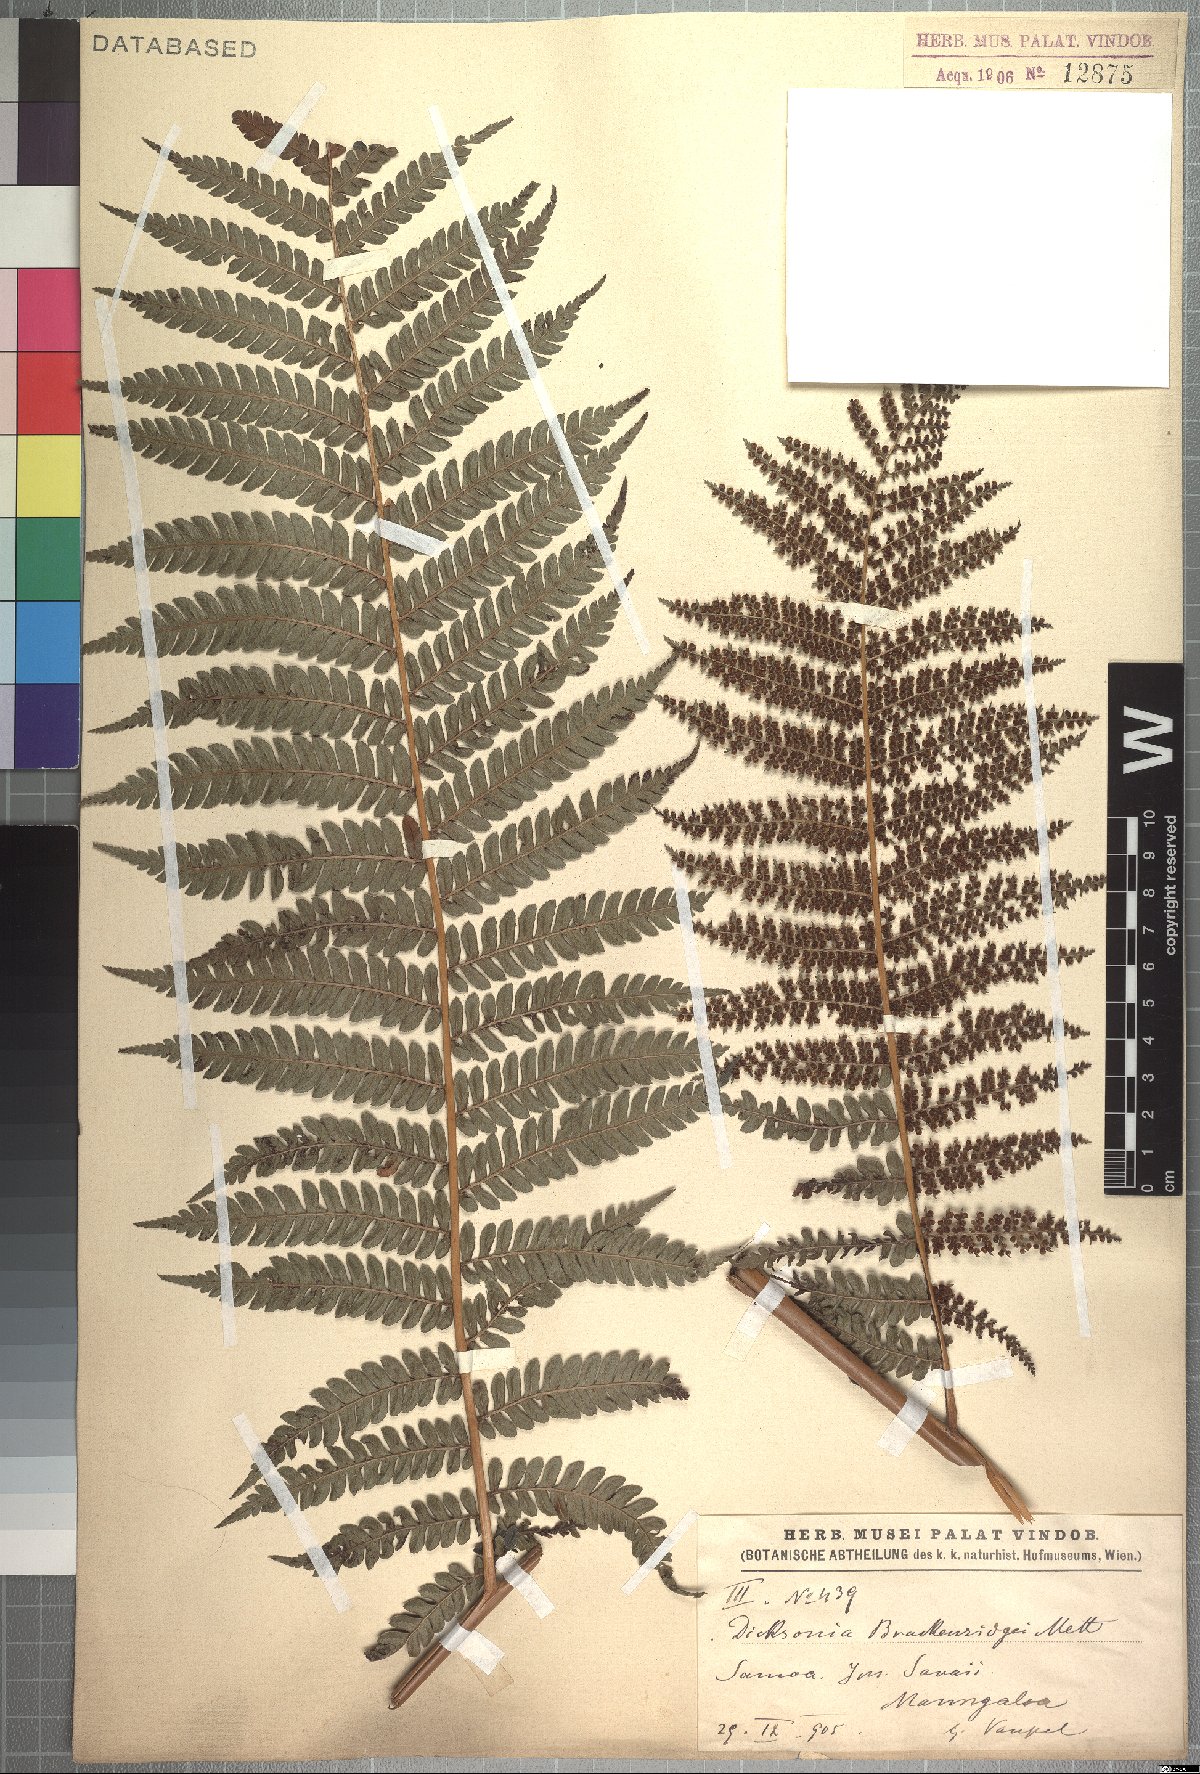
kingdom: Plantae
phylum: Tracheophyta
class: Polypodiopsida
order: Cyatheales
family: Dicksoniaceae
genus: Dicksonia
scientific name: Dicksonia brackenridgei
